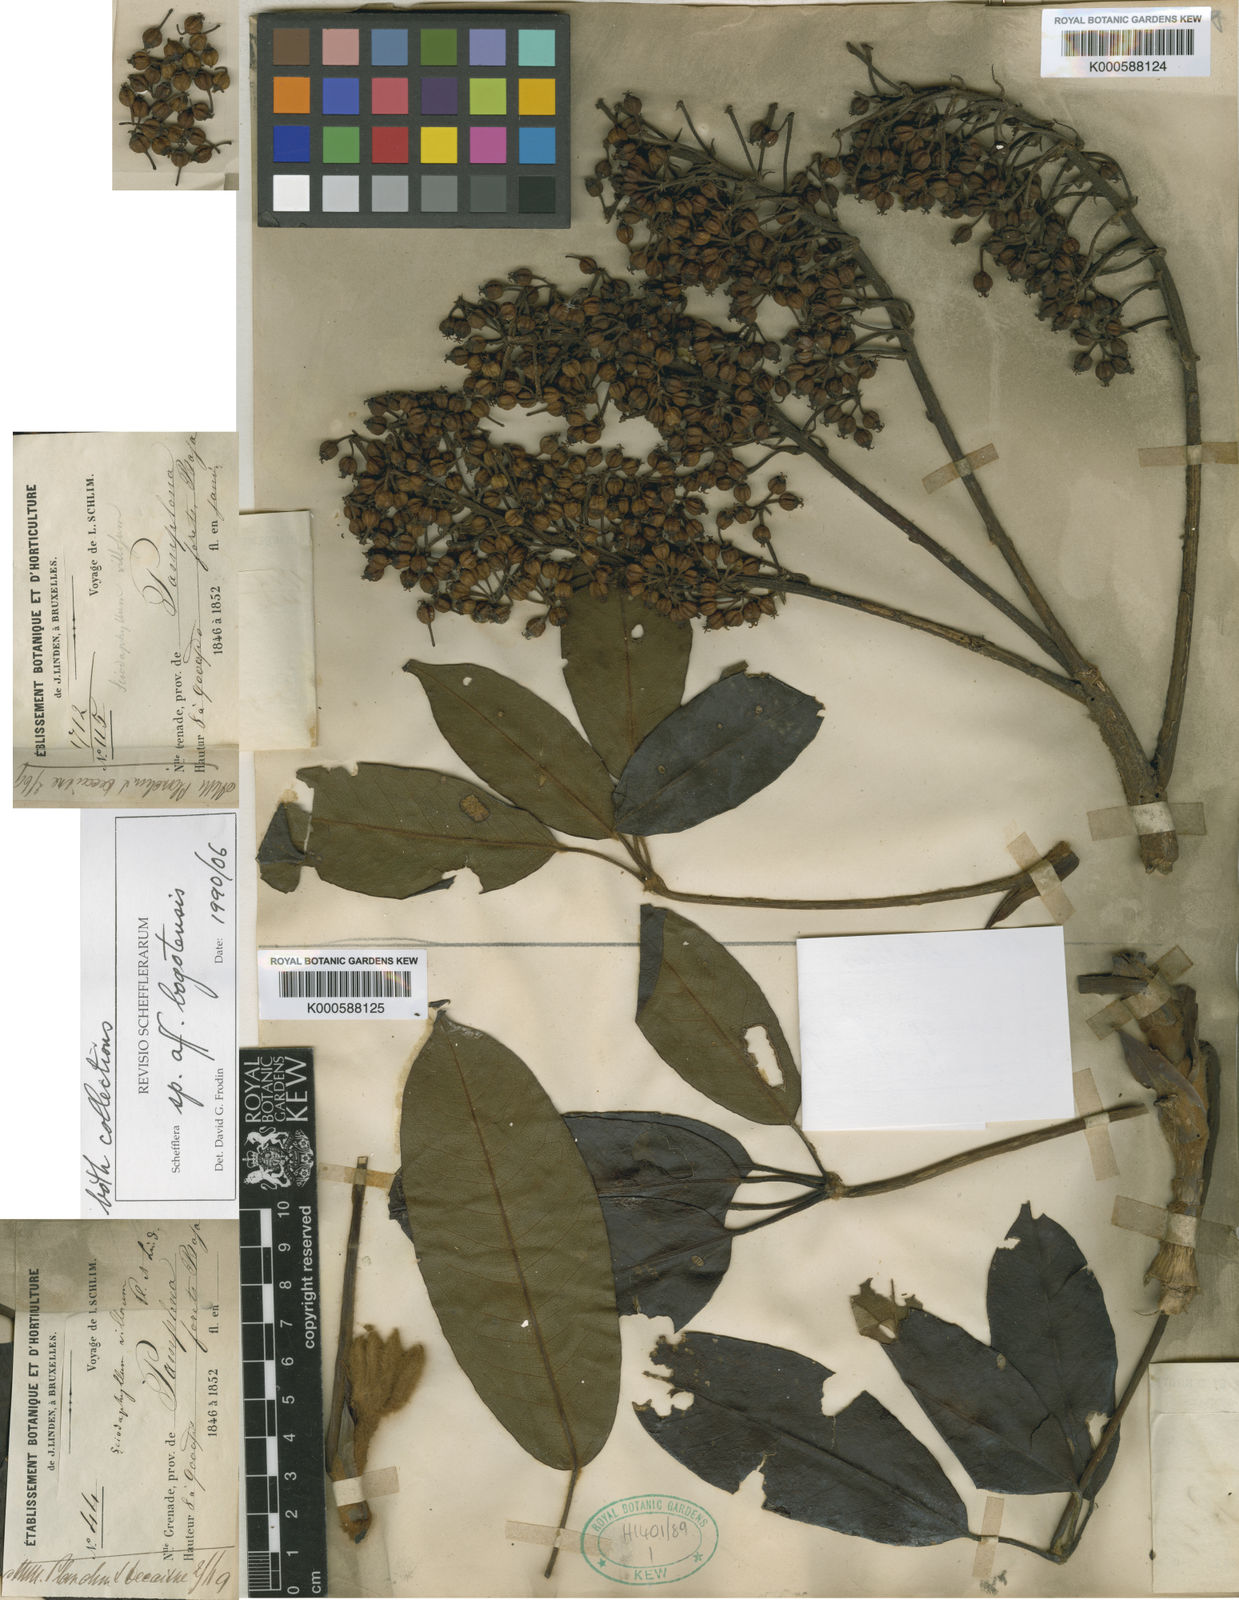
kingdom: Plantae
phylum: Tracheophyta
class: Magnoliopsida
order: Apiales
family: Araliaceae
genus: Sciodaphyllum
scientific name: Sciodaphyllum tamanum
